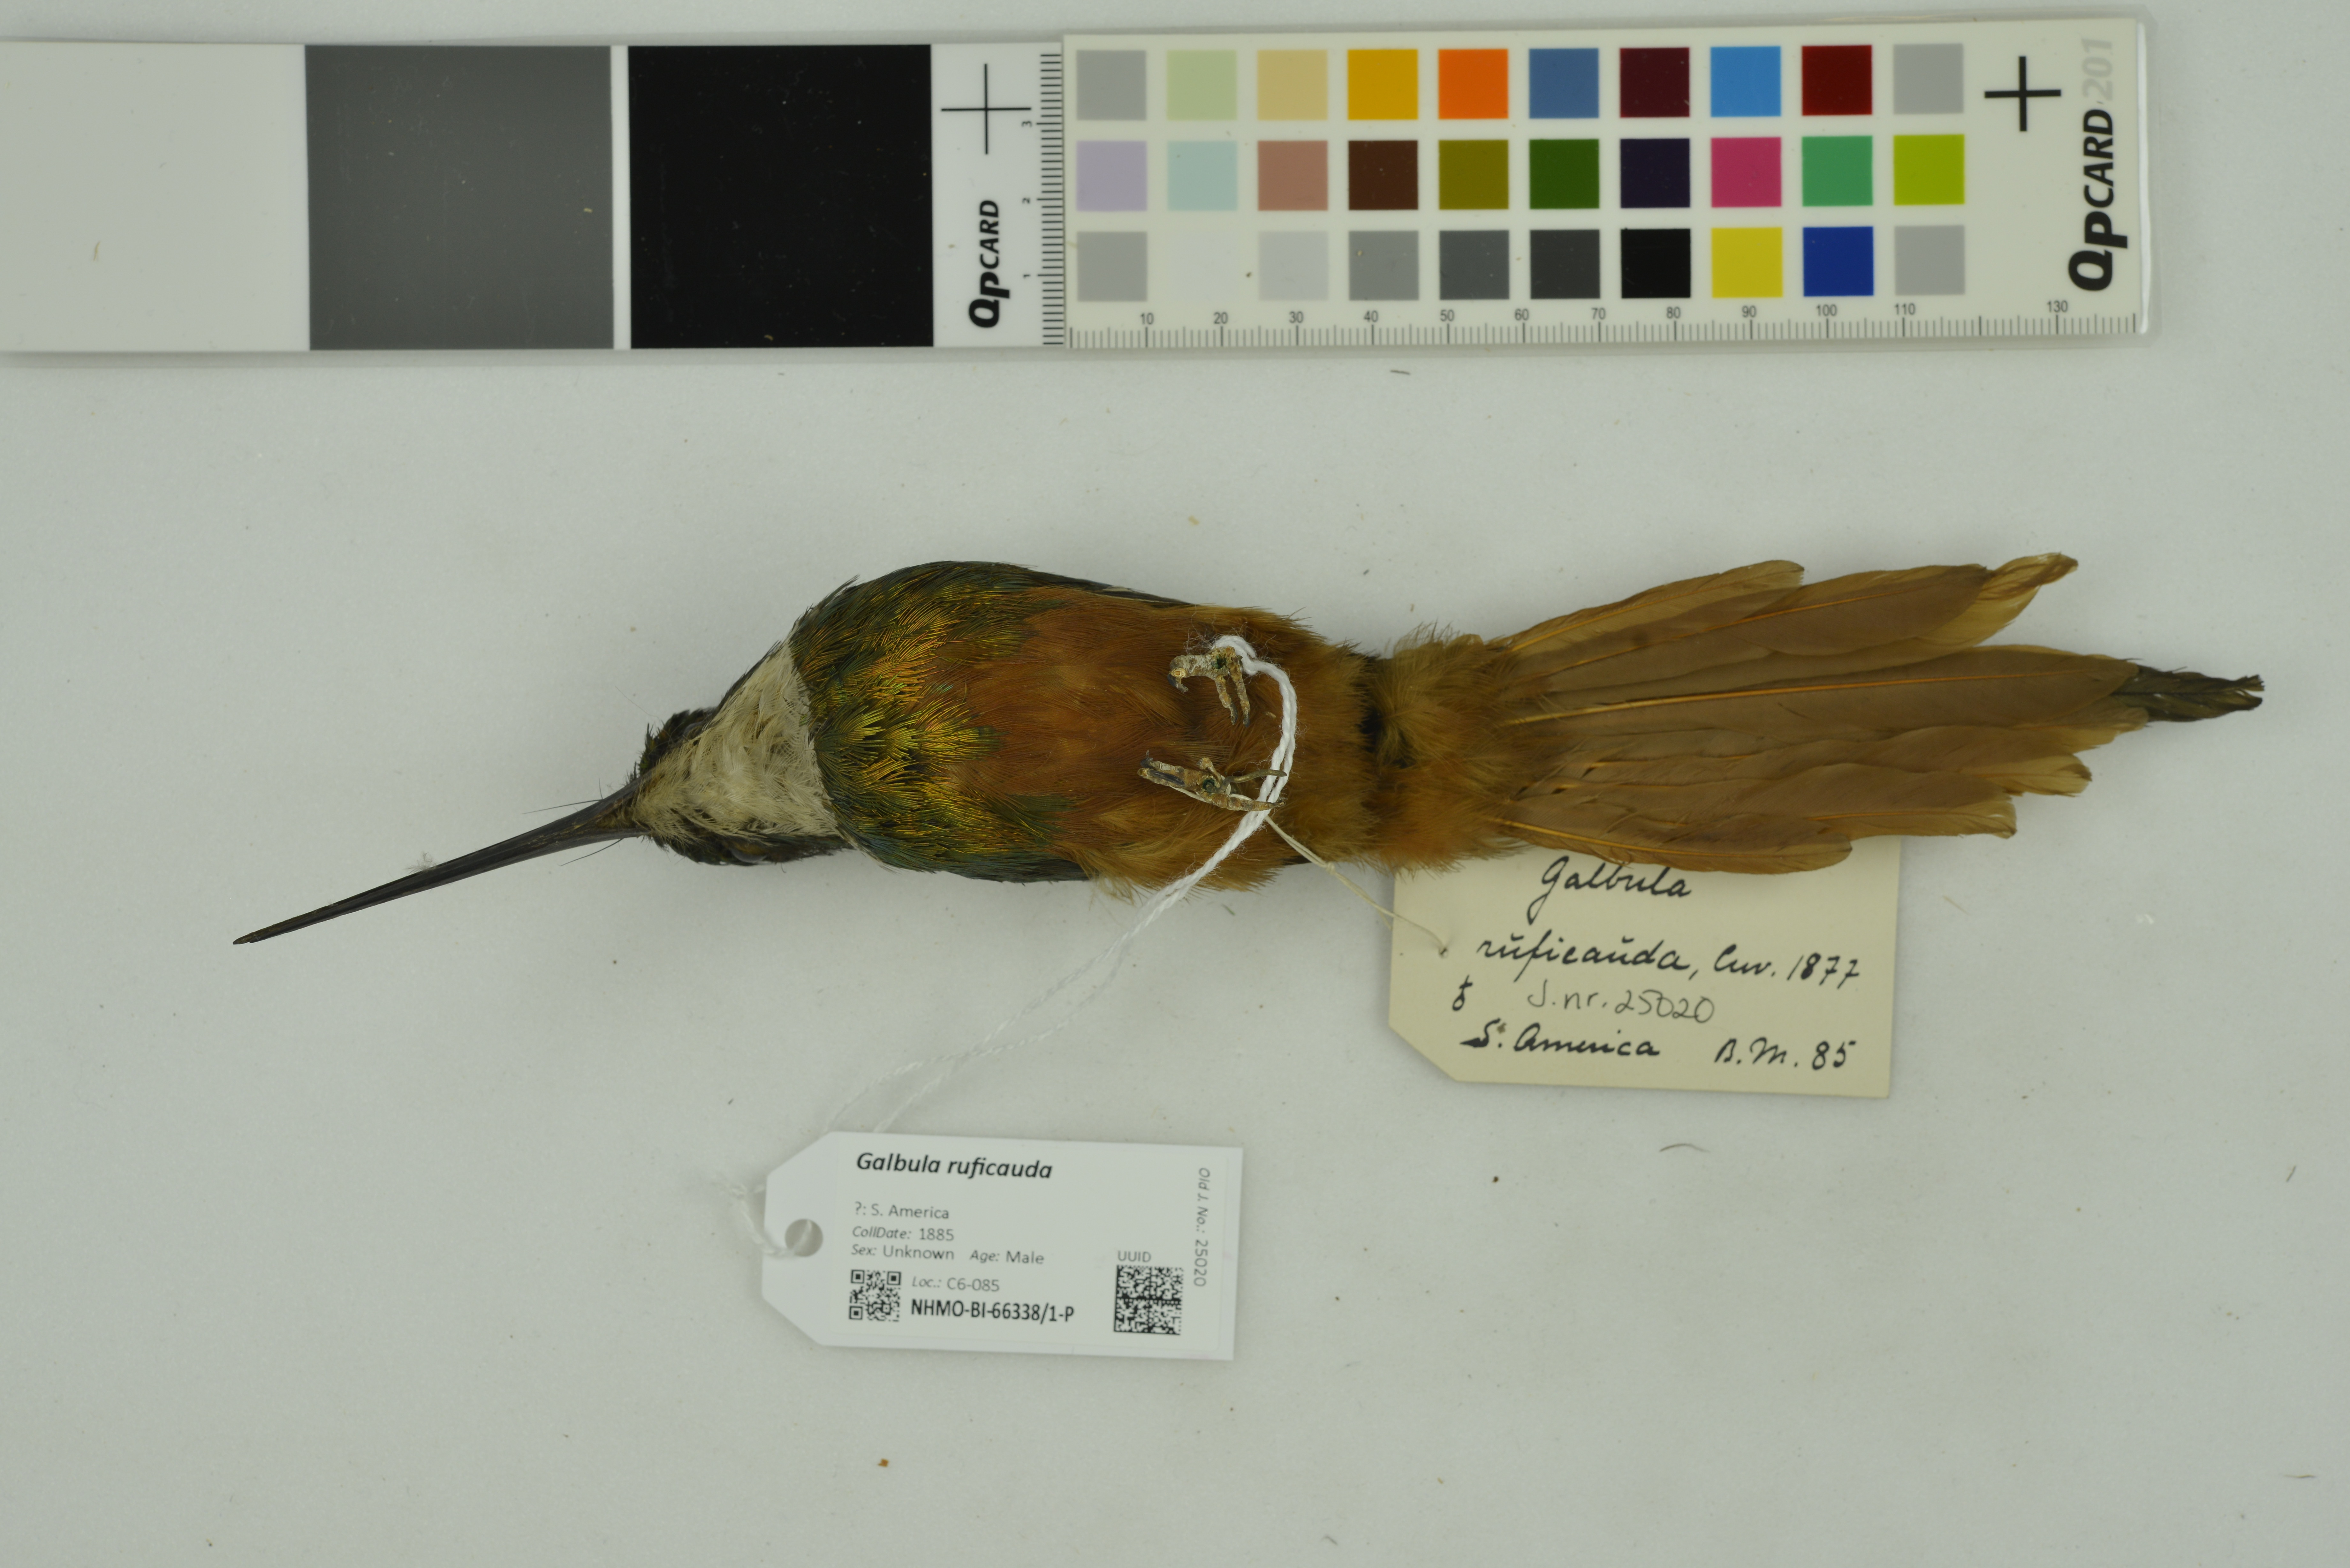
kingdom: Animalia
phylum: Chordata
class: Aves
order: Piciformes
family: Galbulidae
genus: Galbula
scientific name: Galbula ruficauda
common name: Rufous-tailed jacamar
